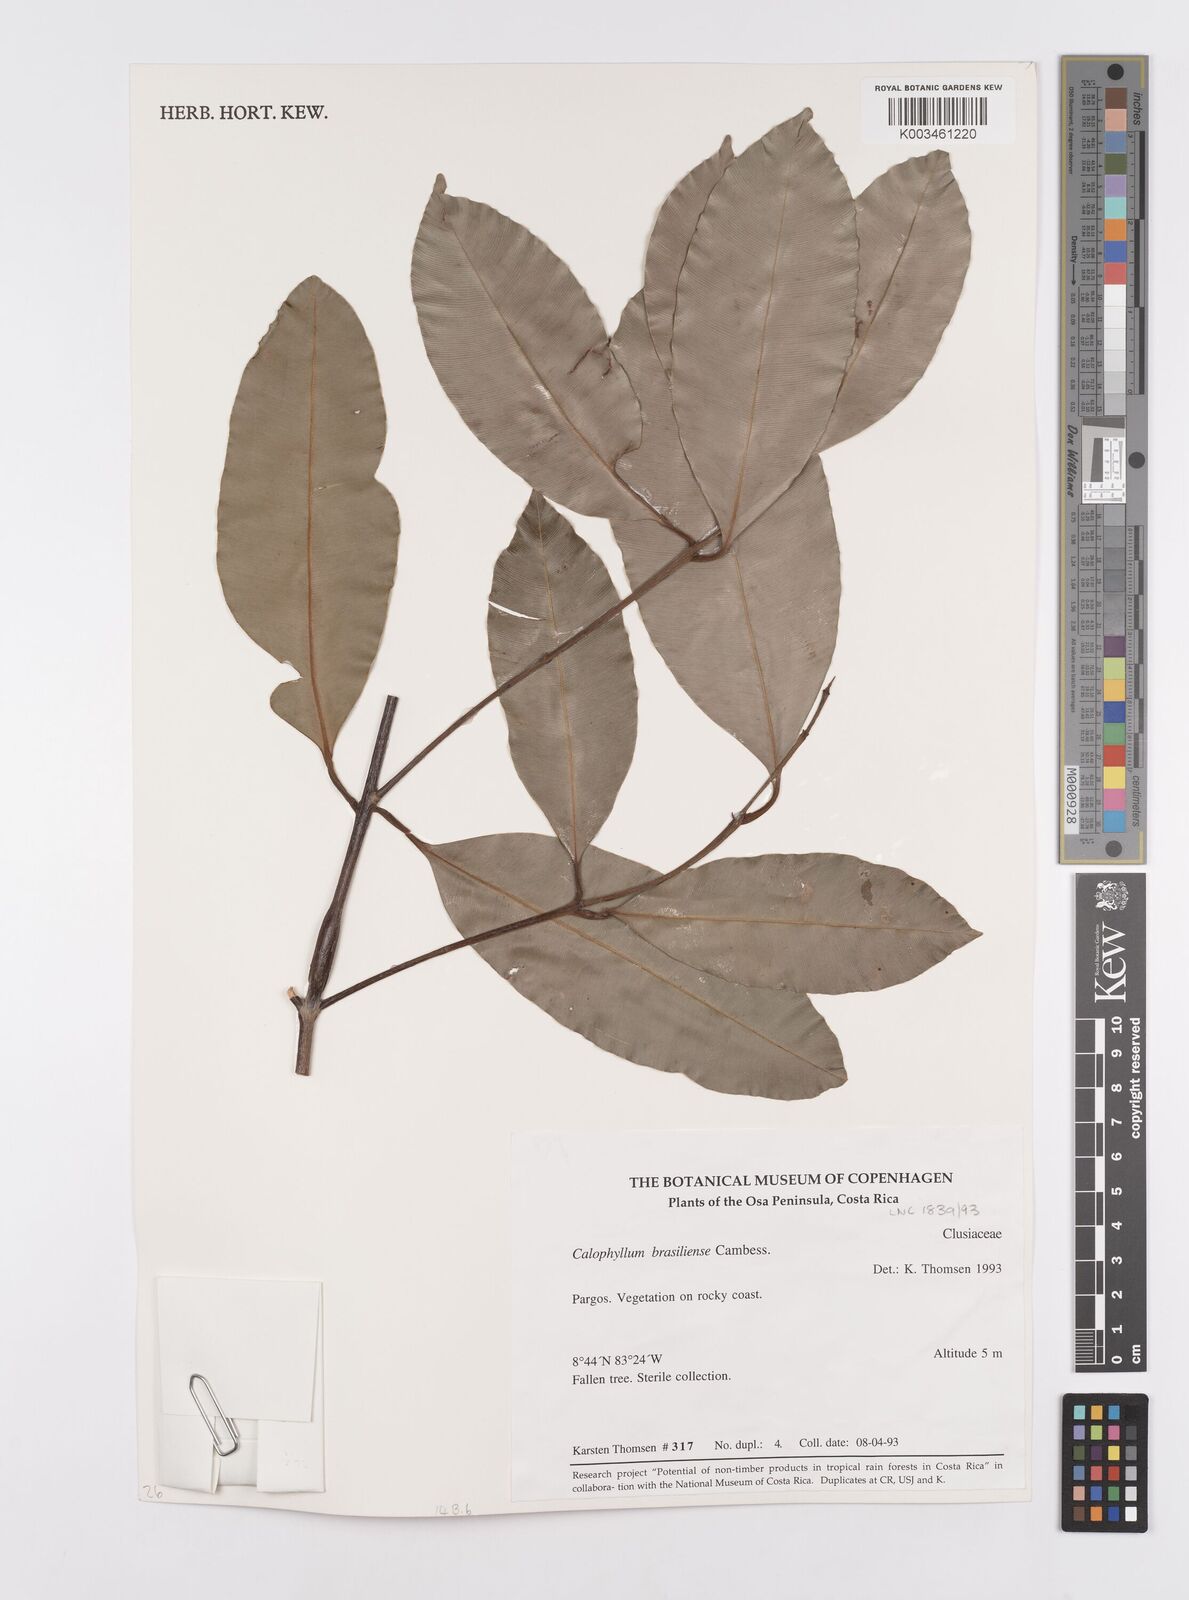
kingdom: Plantae
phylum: Tracheophyta
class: Magnoliopsida
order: Malpighiales
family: Calophyllaceae
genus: Calophyllum
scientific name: Calophyllum brasiliense
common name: Santa maria
